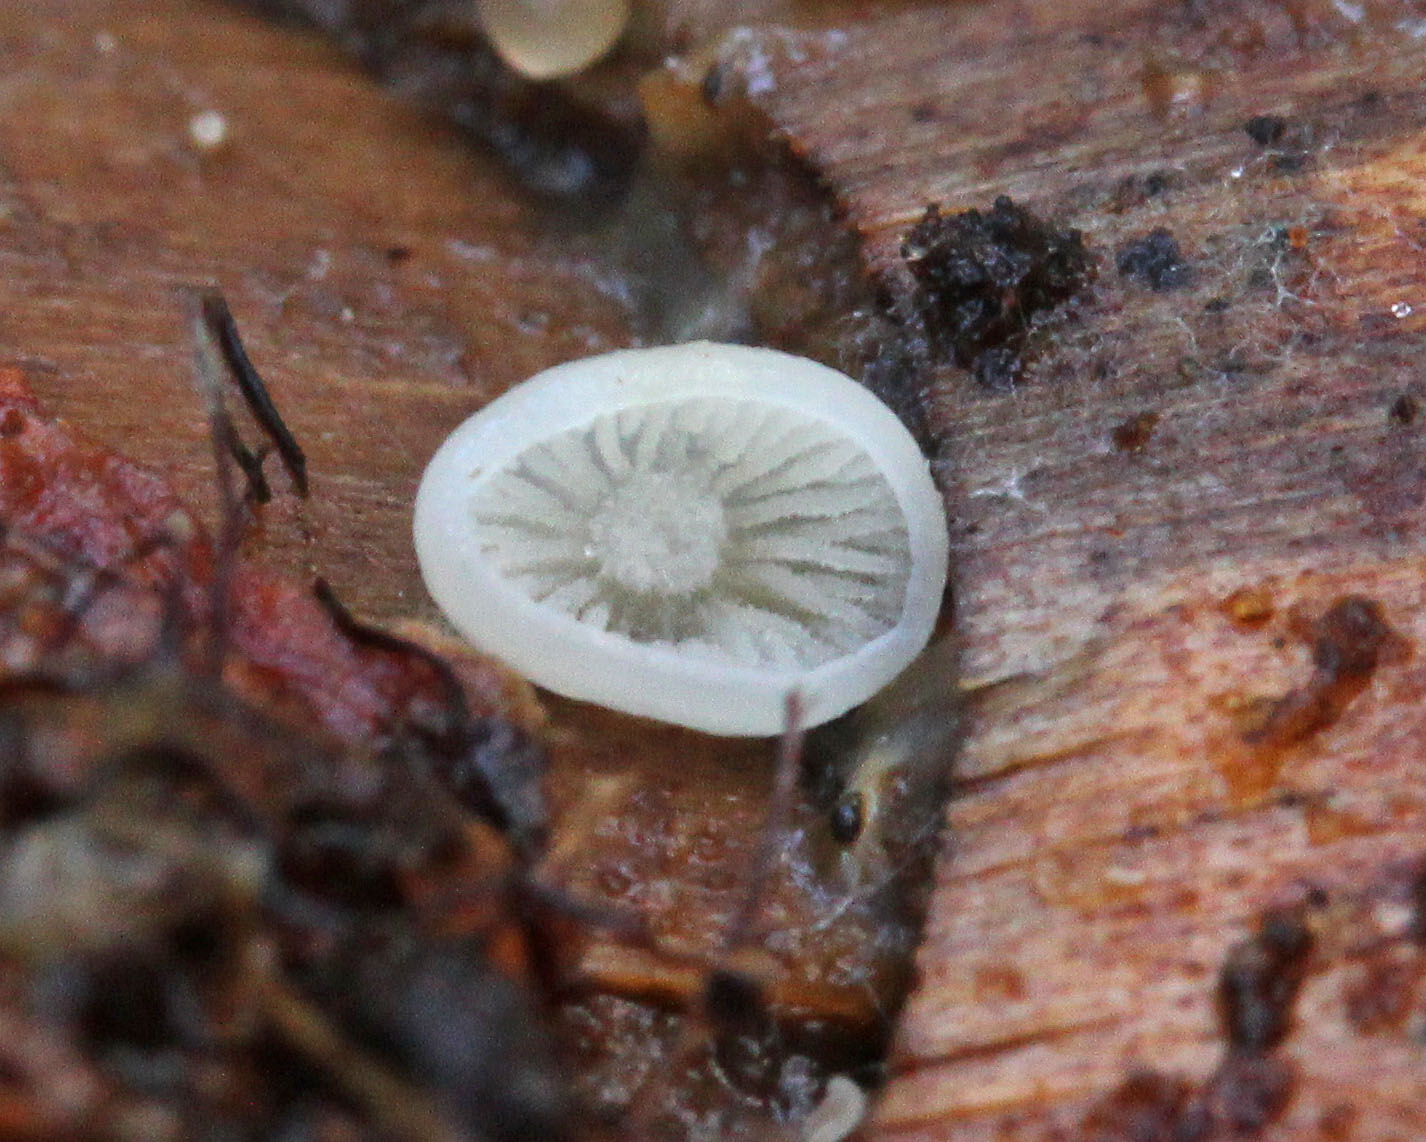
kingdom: Fungi
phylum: Basidiomycota
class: Agaricomycetes
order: Agaricales
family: Physalacriaceae
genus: Strobilurus
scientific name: Strobilurus esculentus
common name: gran-koglehat
